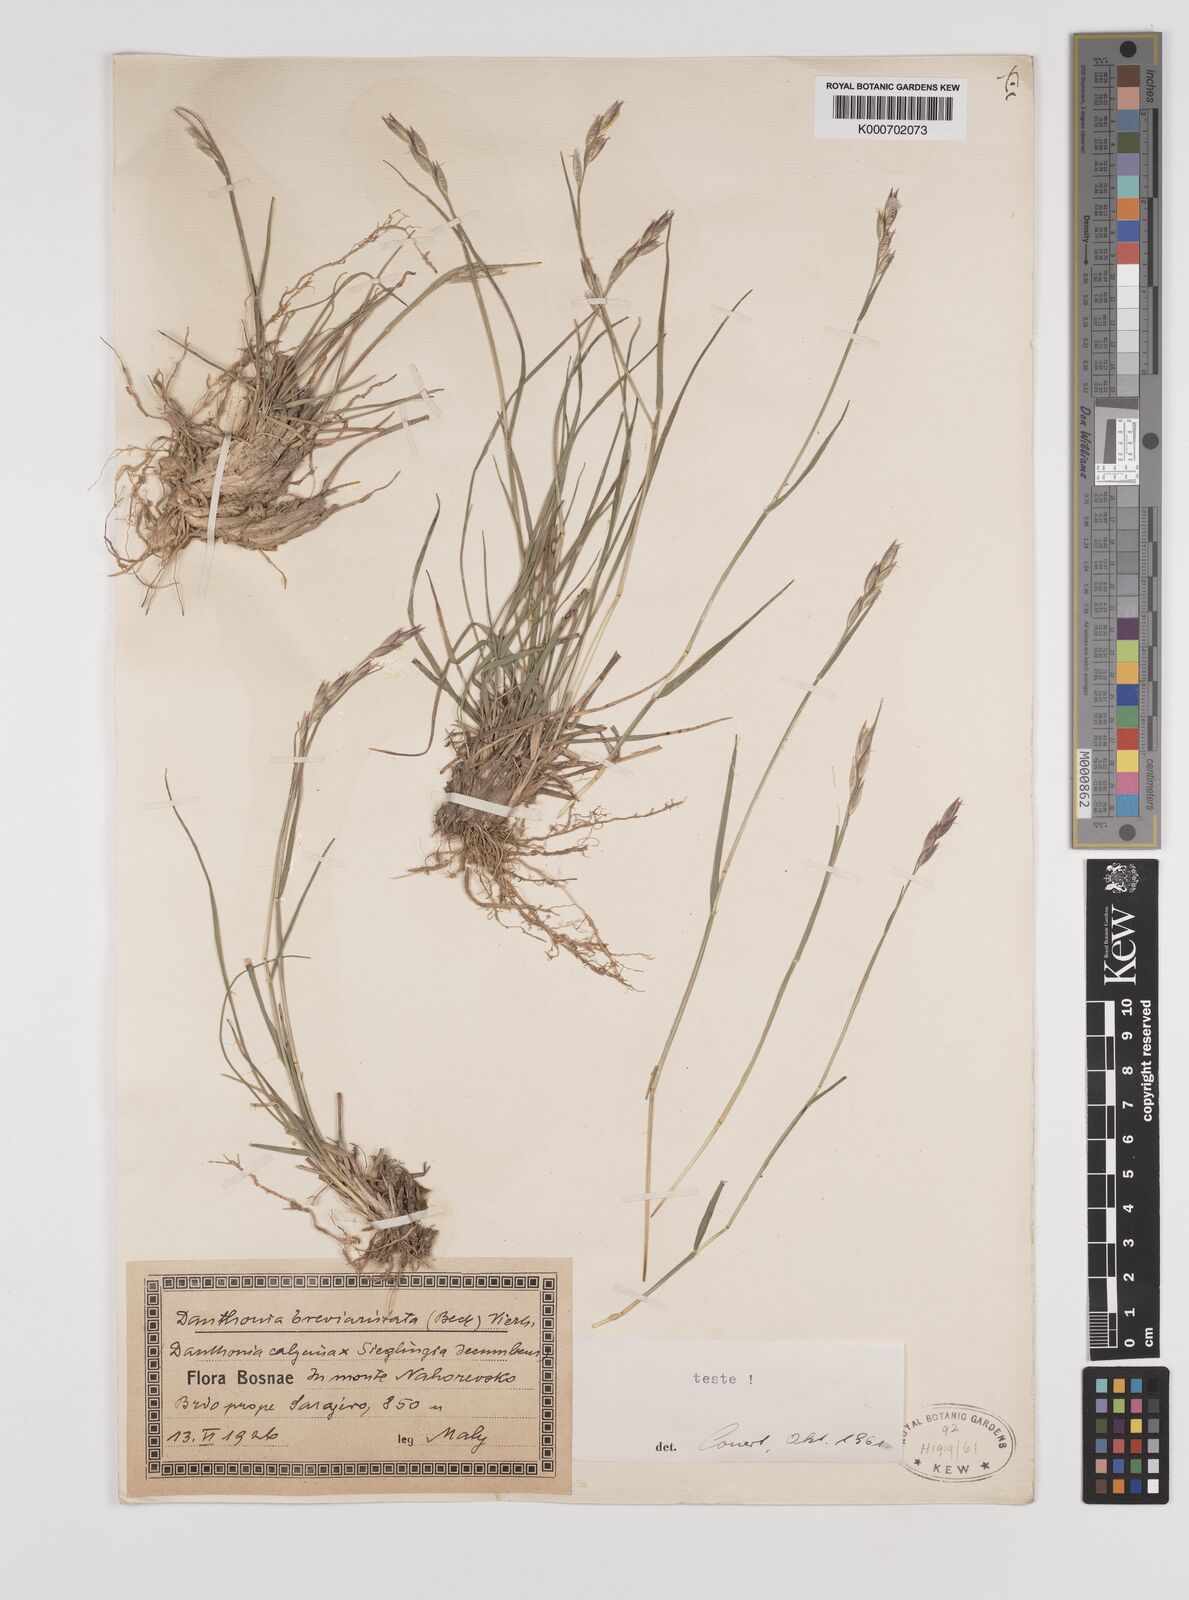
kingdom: Plantae
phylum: Tracheophyta
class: Liliopsida
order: Poales
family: Poaceae
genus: Danthonia
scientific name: Danthonia breviaristata
